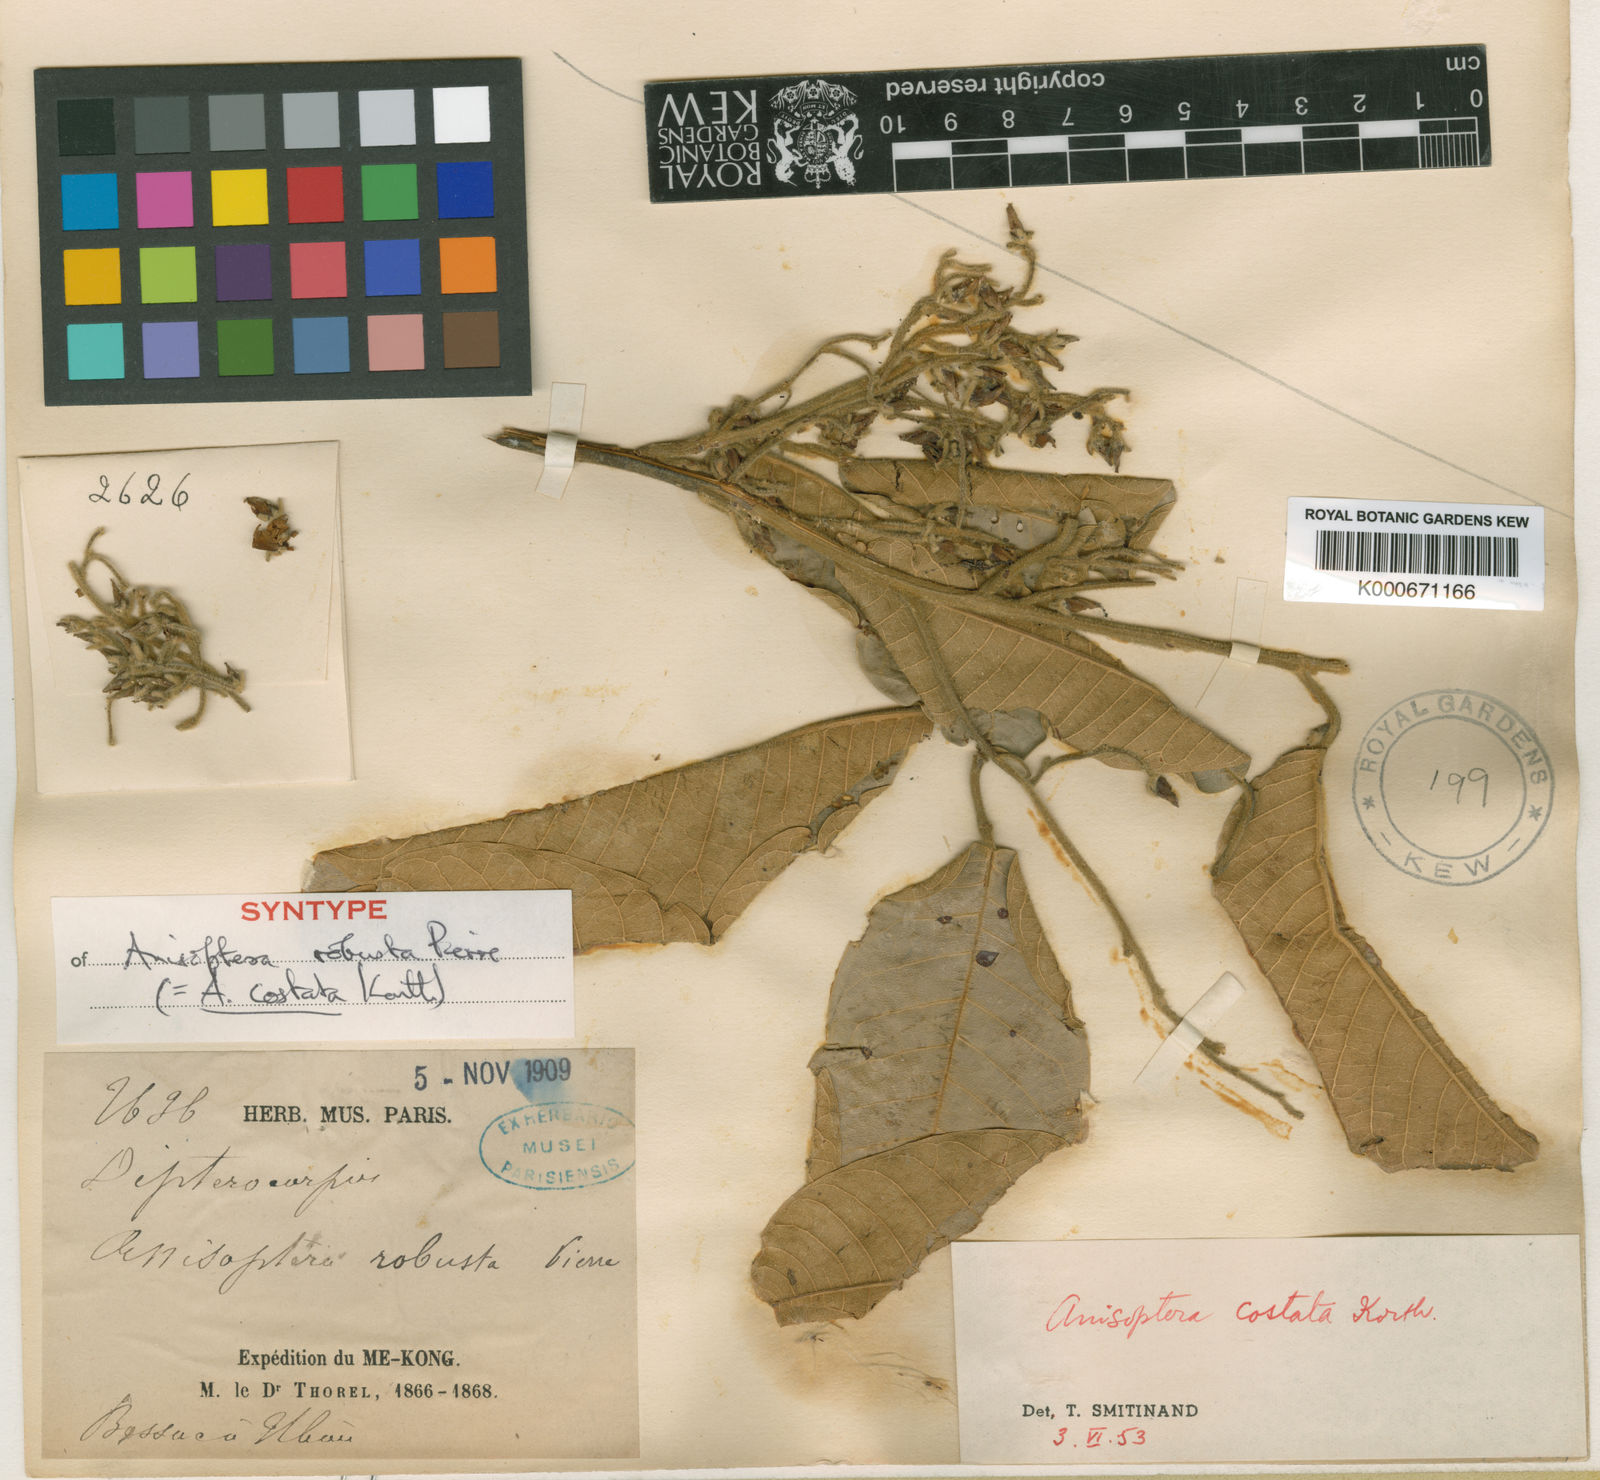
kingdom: Plantae
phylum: Tracheophyta
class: Magnoliopsida
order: Malvales
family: Dipterocarpaceae
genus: Anisoptera
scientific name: Anisoptera costata
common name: Mersawa
